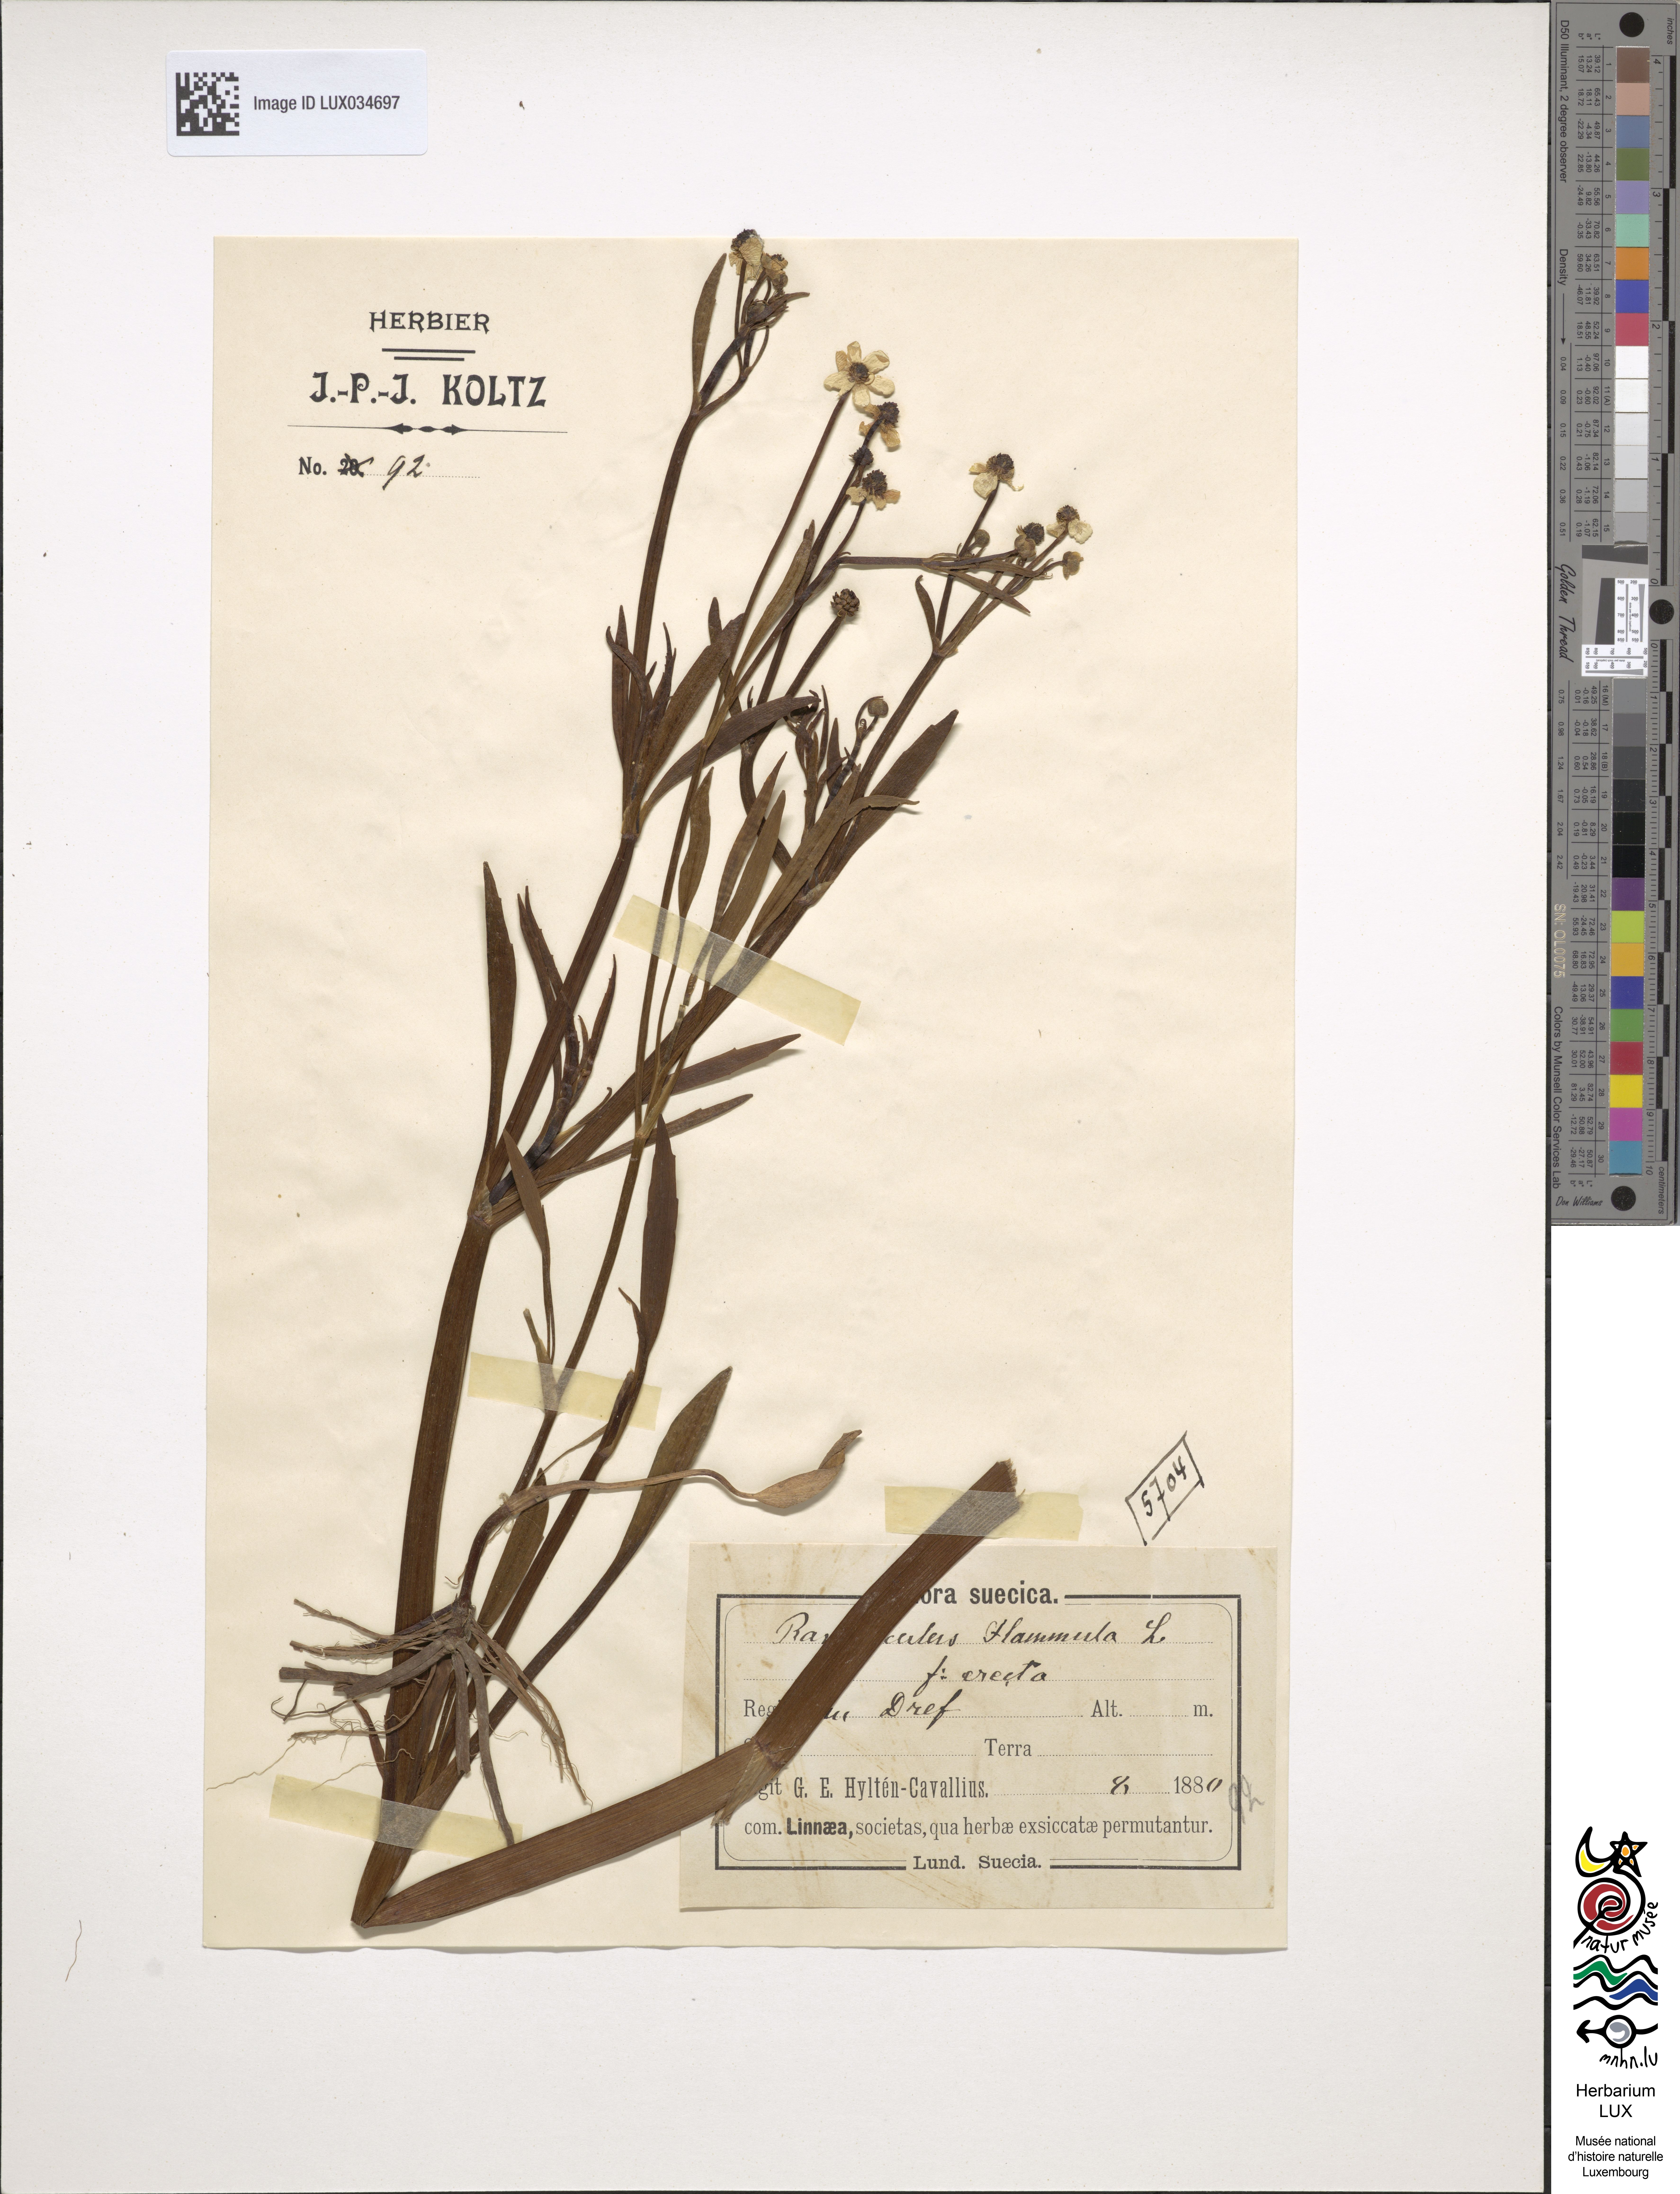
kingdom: Plantae
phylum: Tracheophyta
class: Magnoliopsida
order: Ranunculales
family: Ranunculaceae
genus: Ranunculus
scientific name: Ranunculus flammula
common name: Lesser spearwort
